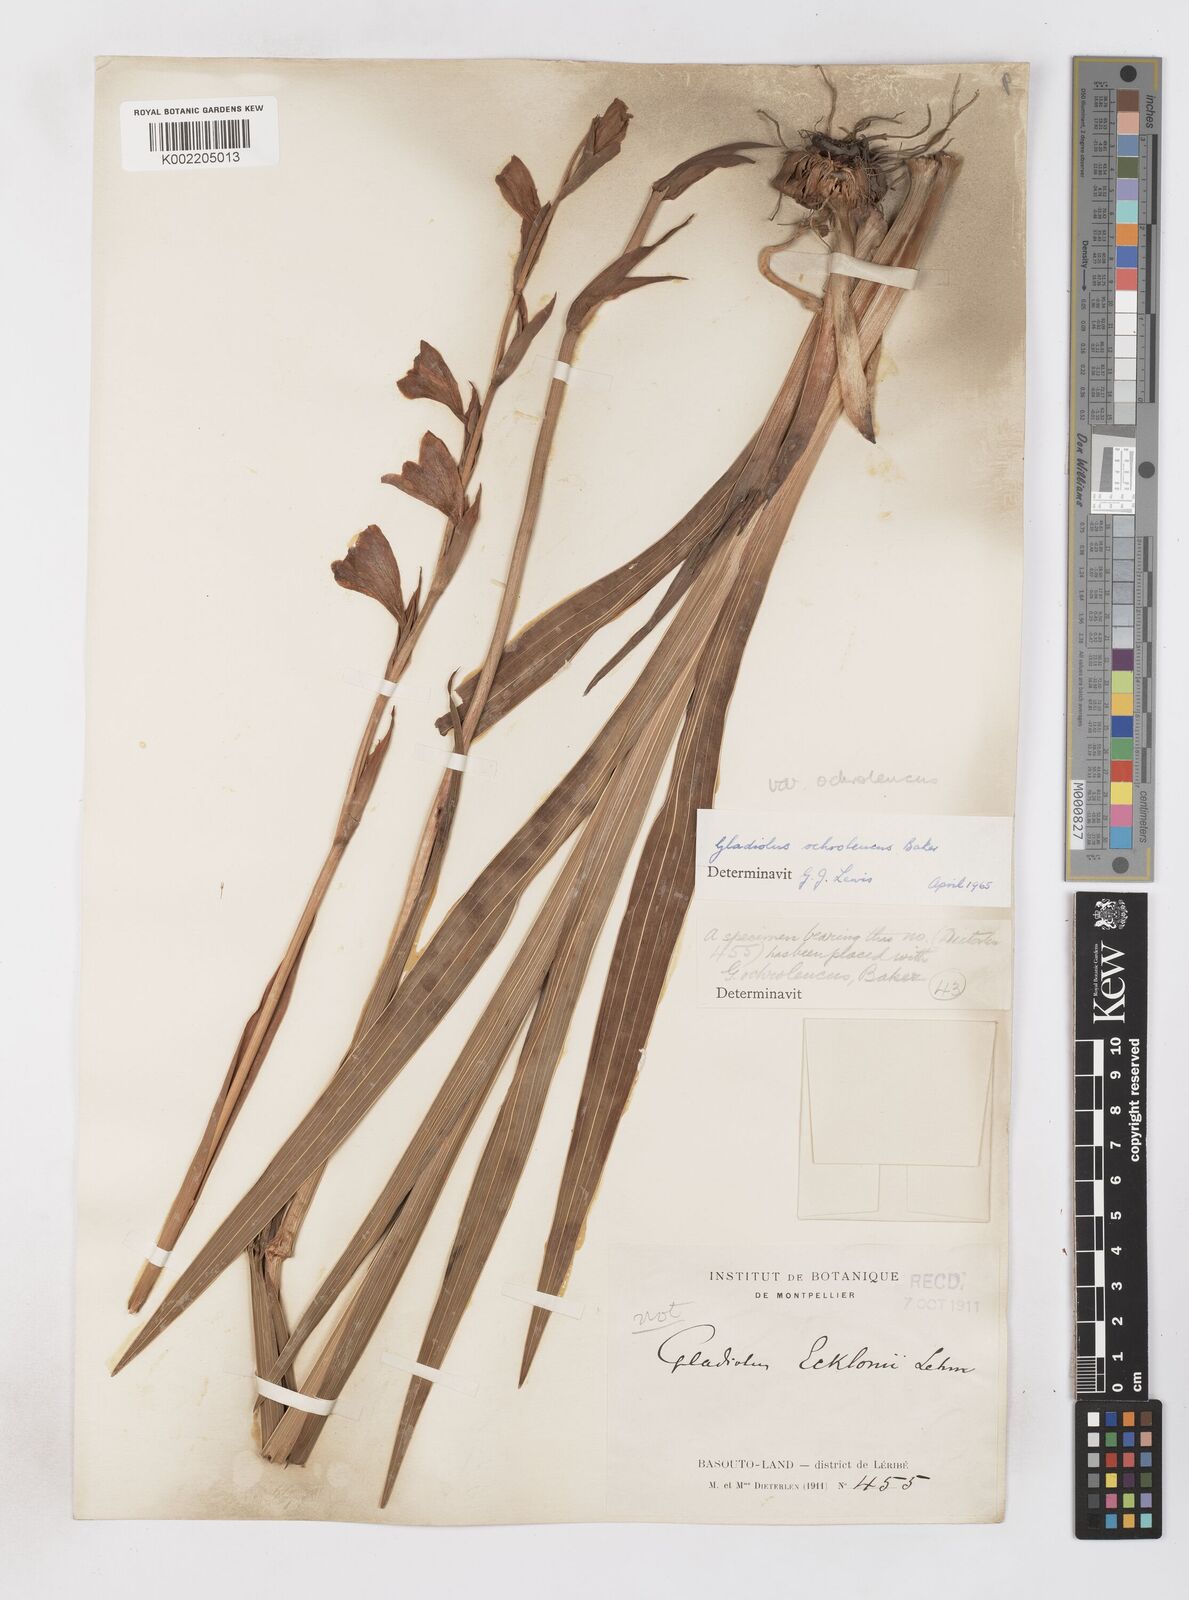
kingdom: Plantae
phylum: Tracheophyta
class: Liliopsida
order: Asparagales
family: Iridaceae
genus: Gladiolus
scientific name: Gladiolus ochroleucus
